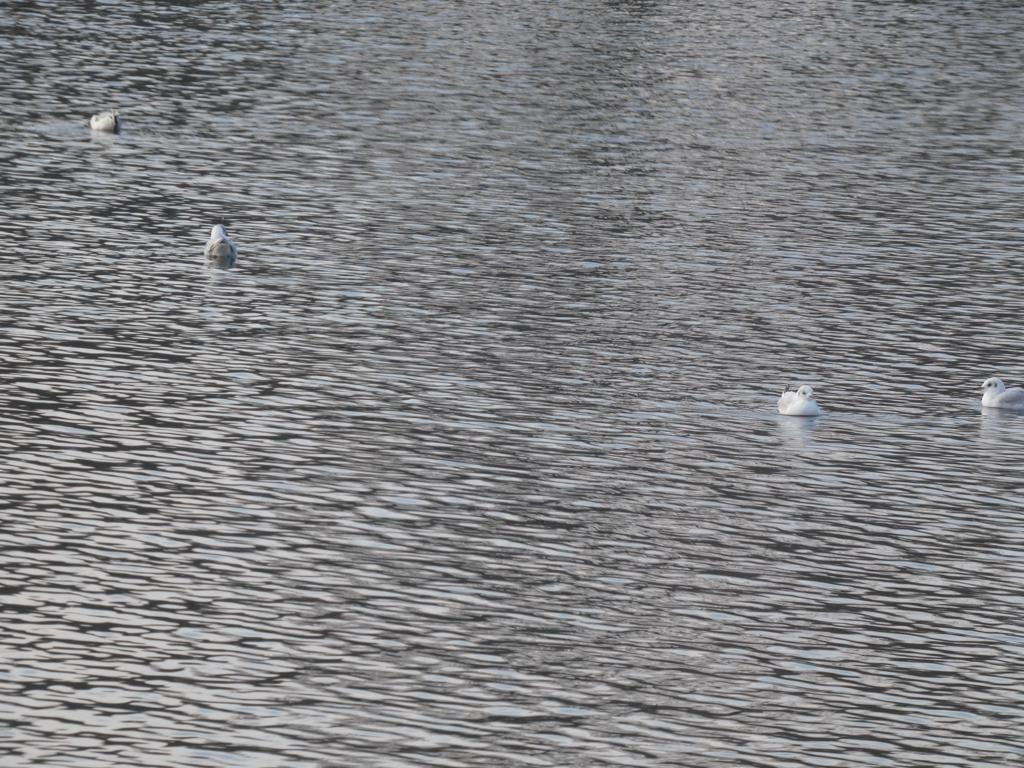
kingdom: Animalia
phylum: Chordata
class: Aves
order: Charadriiformes
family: Laridae
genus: Chroicocephalus
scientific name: Chroicocephalus ridibundus
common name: Hættemåge
